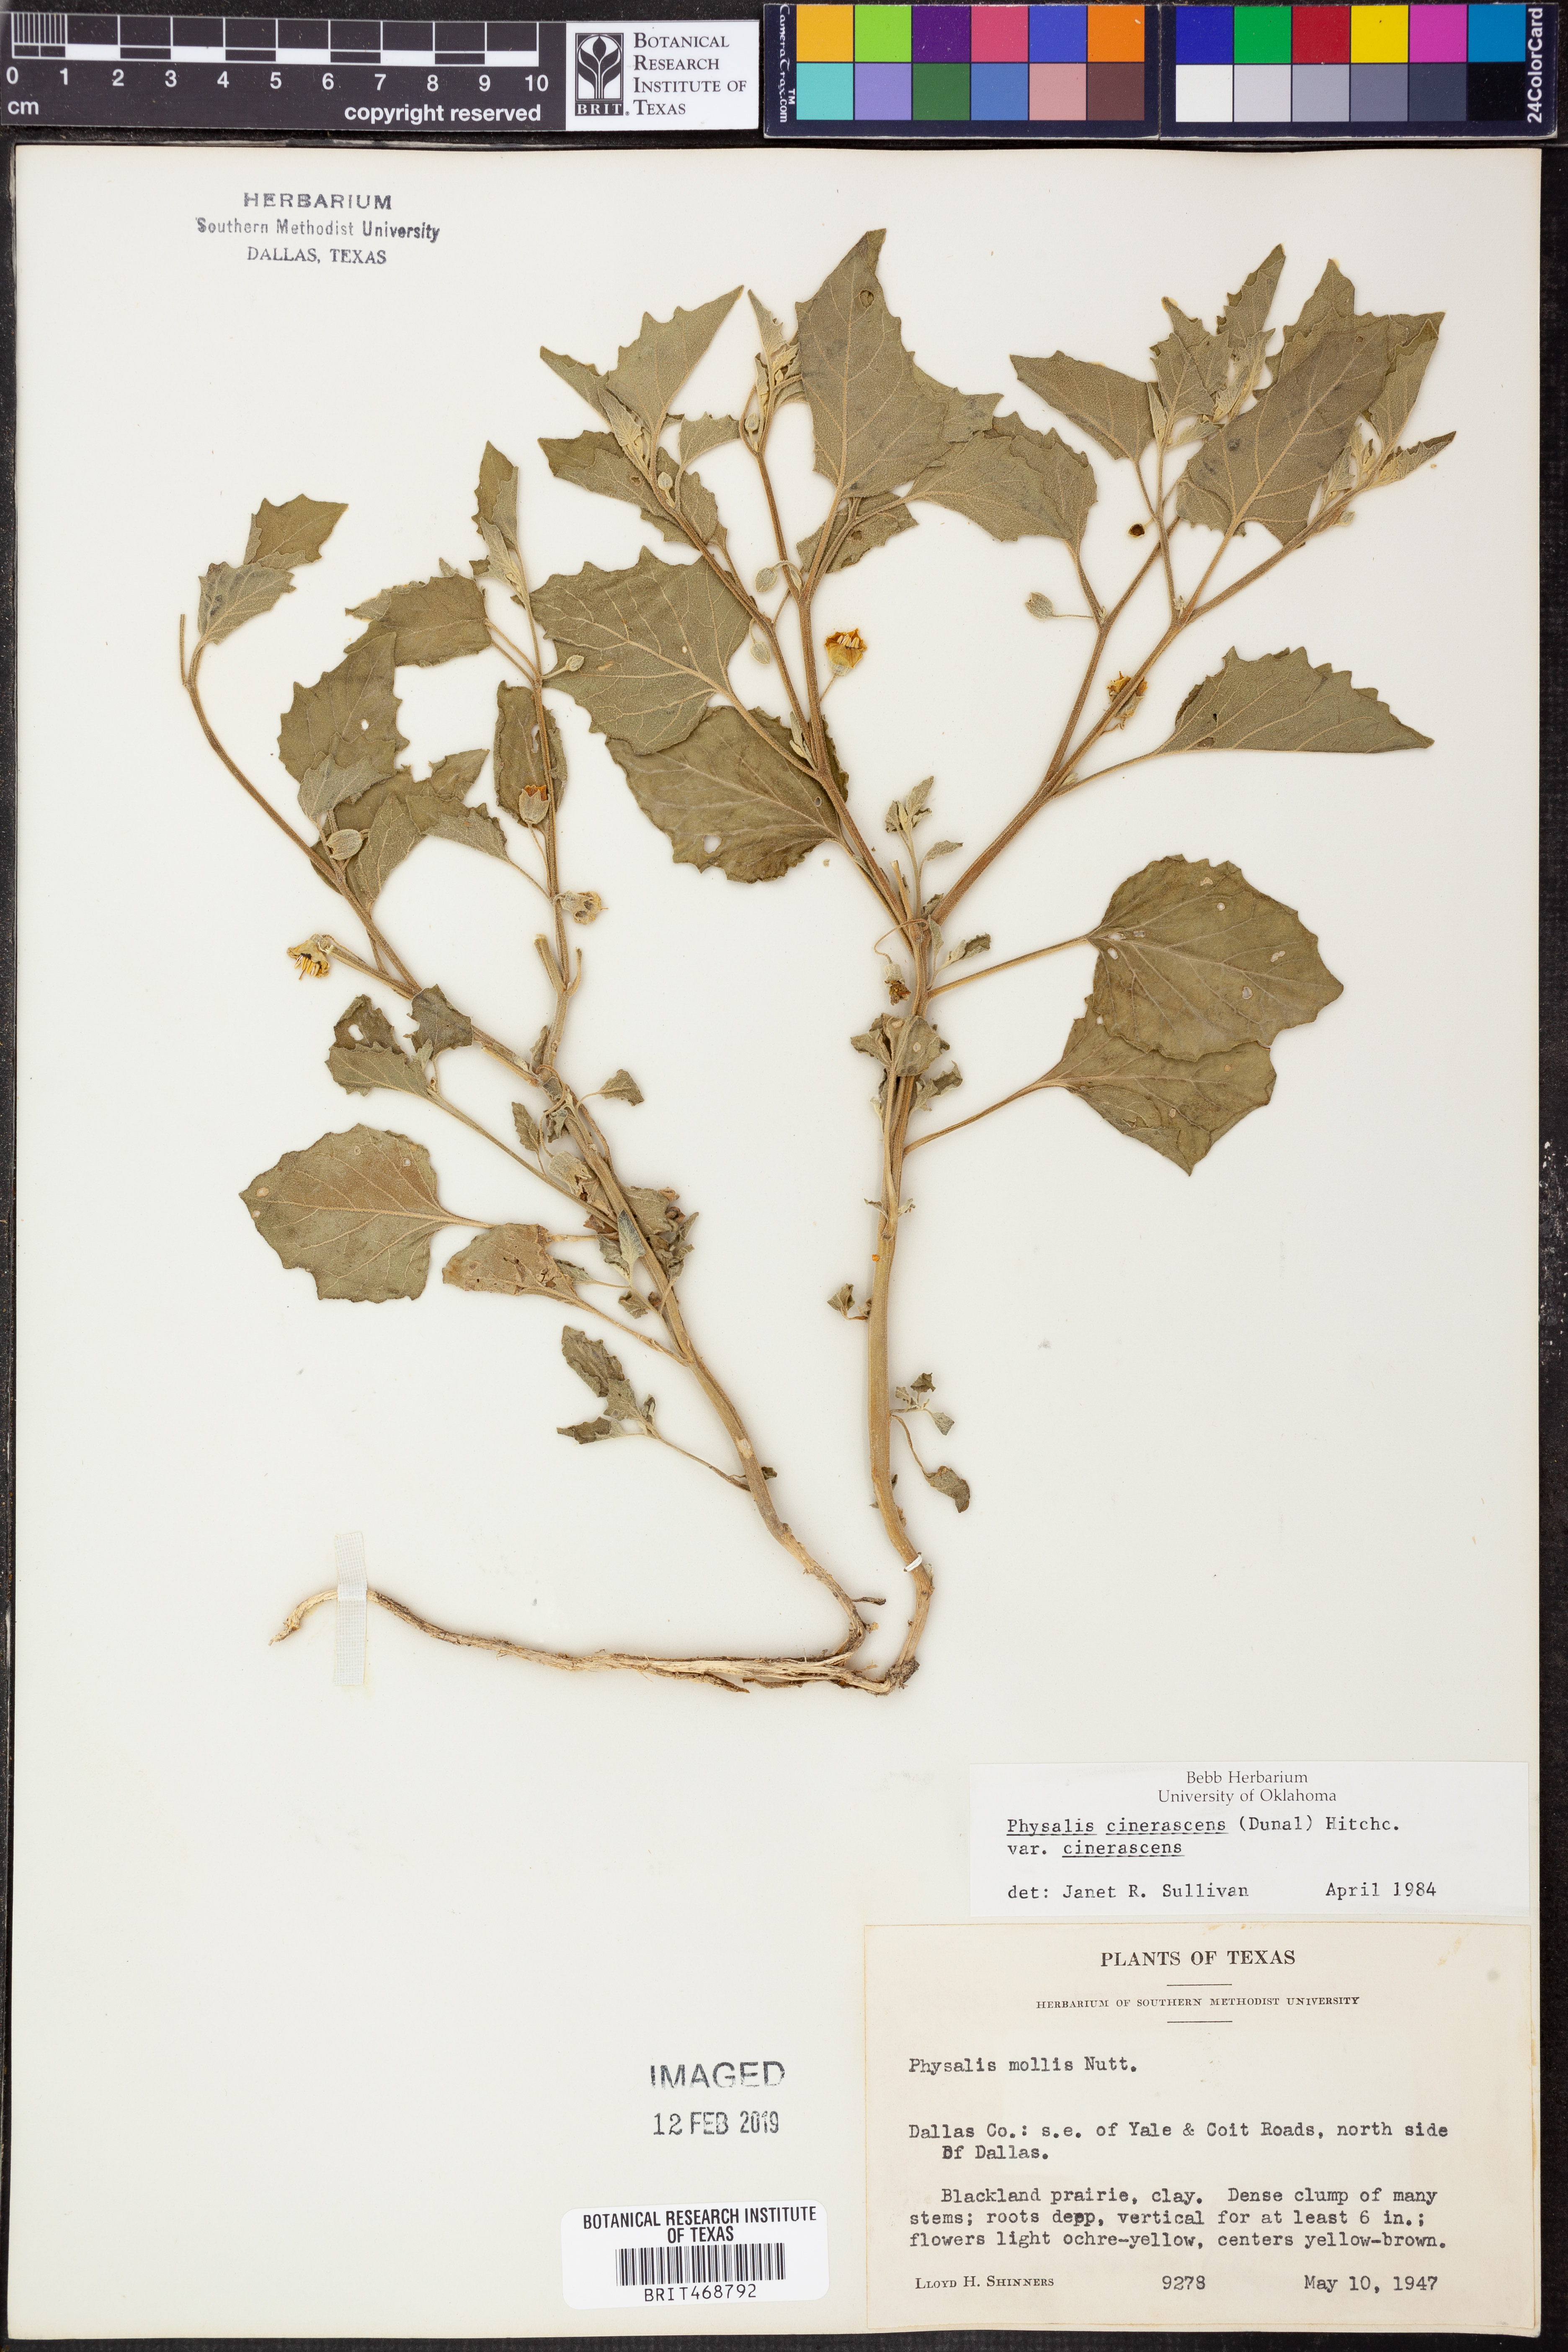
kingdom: Plantae
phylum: Tracheophyta
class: Magnoliopsida
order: Solanales
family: Solanaceae
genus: Physalis
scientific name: Physalis cinerascens
